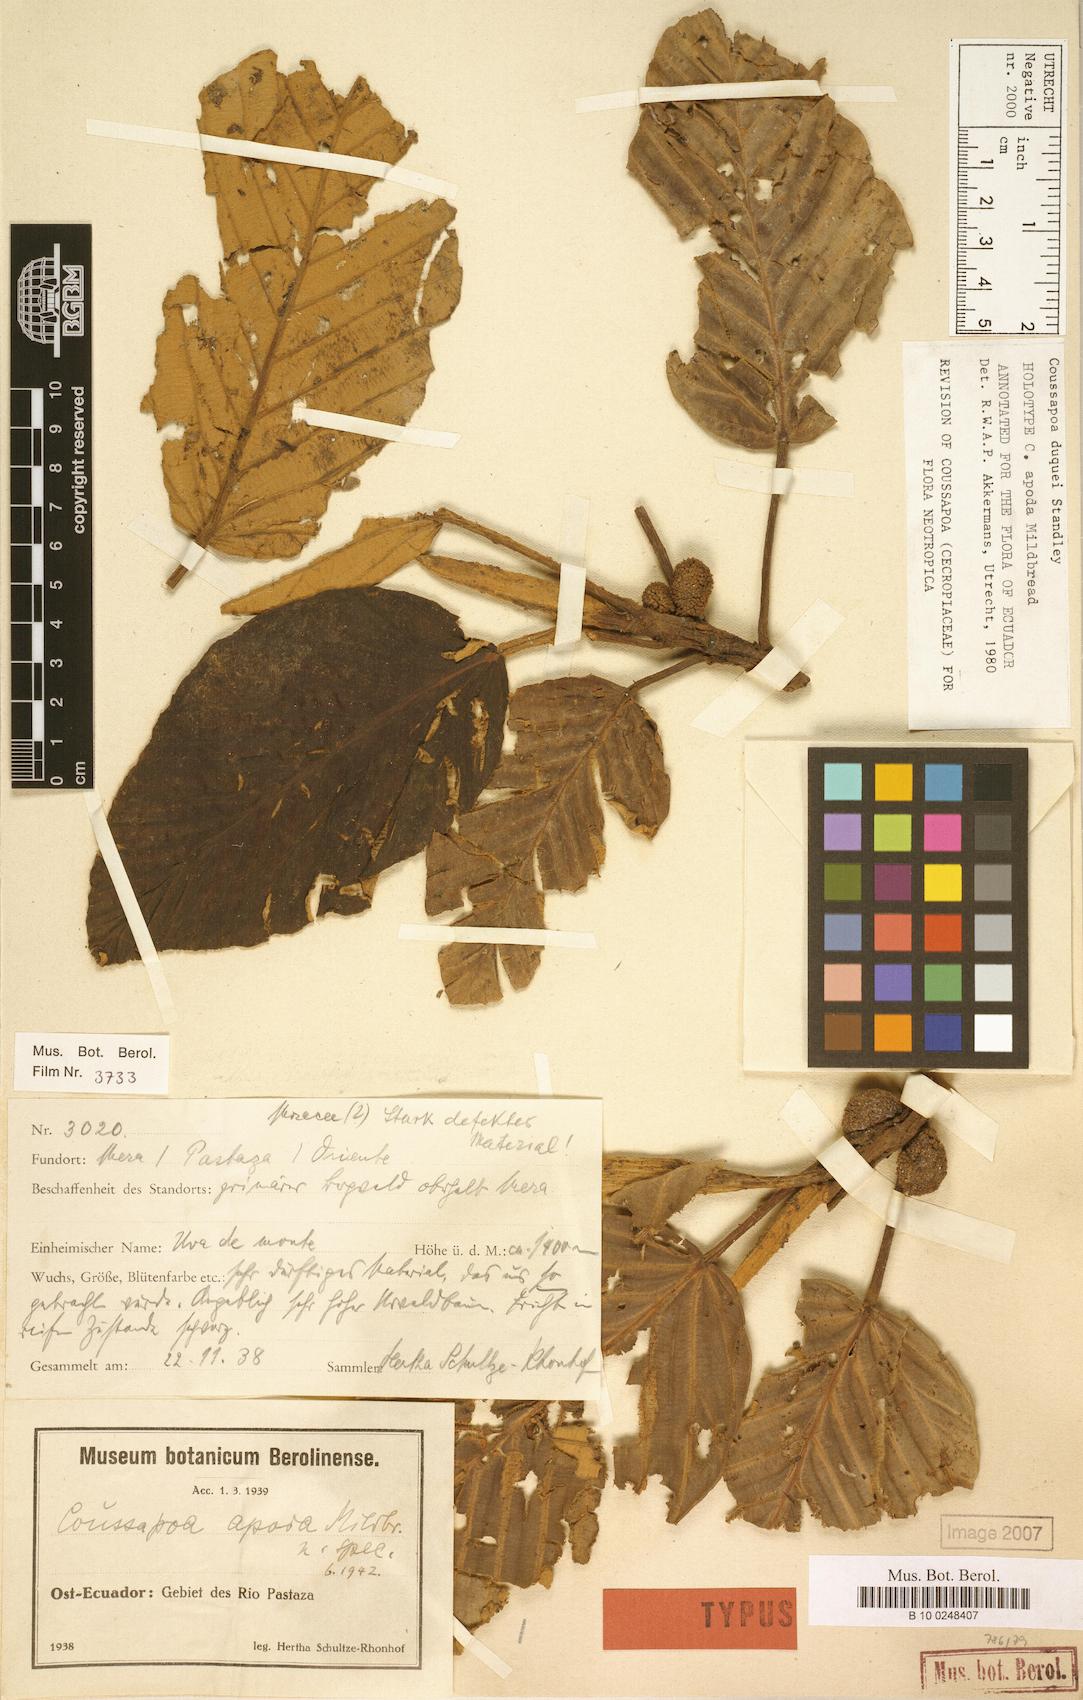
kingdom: Plantae
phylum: Tracheophyta
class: Magnoliopsida
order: Rosales
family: Urticaceae
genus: Coussapoa
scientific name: Coussapoa duquei
